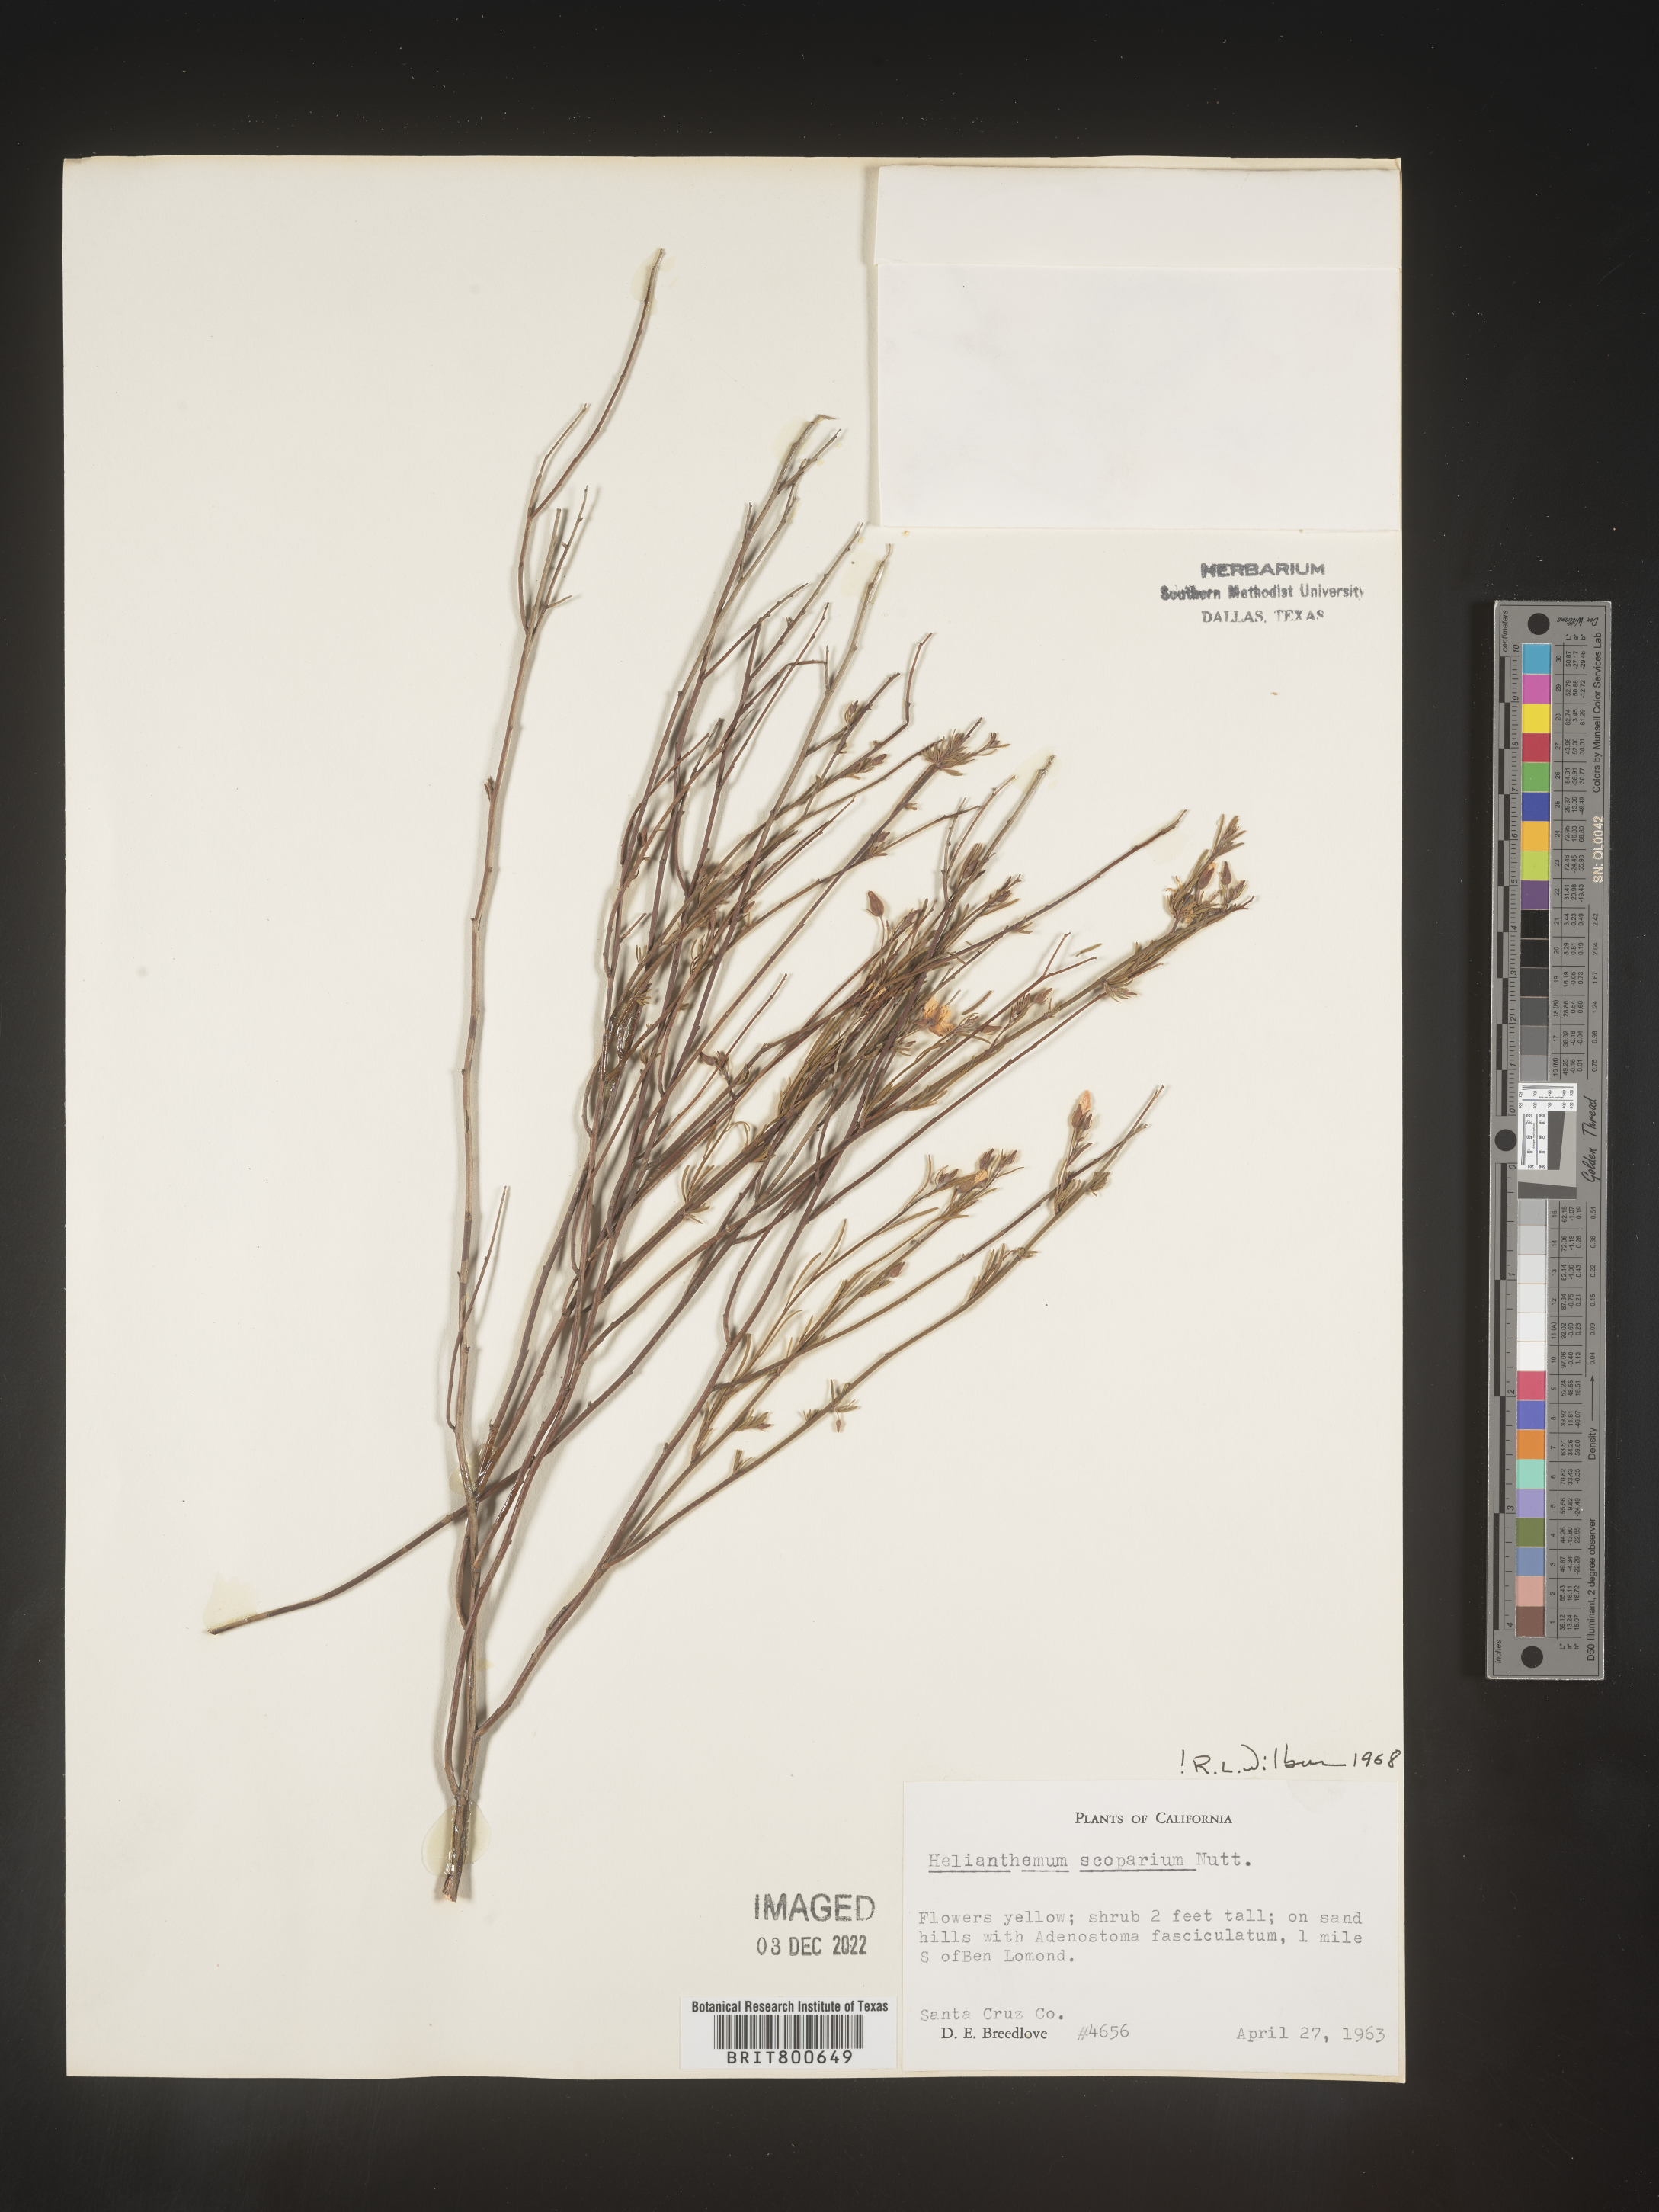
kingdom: Plantae
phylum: Tracheophyta
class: Magnoliopsida
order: Malvales
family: Cistaceae
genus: Helianthemum
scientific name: Helianthemum
